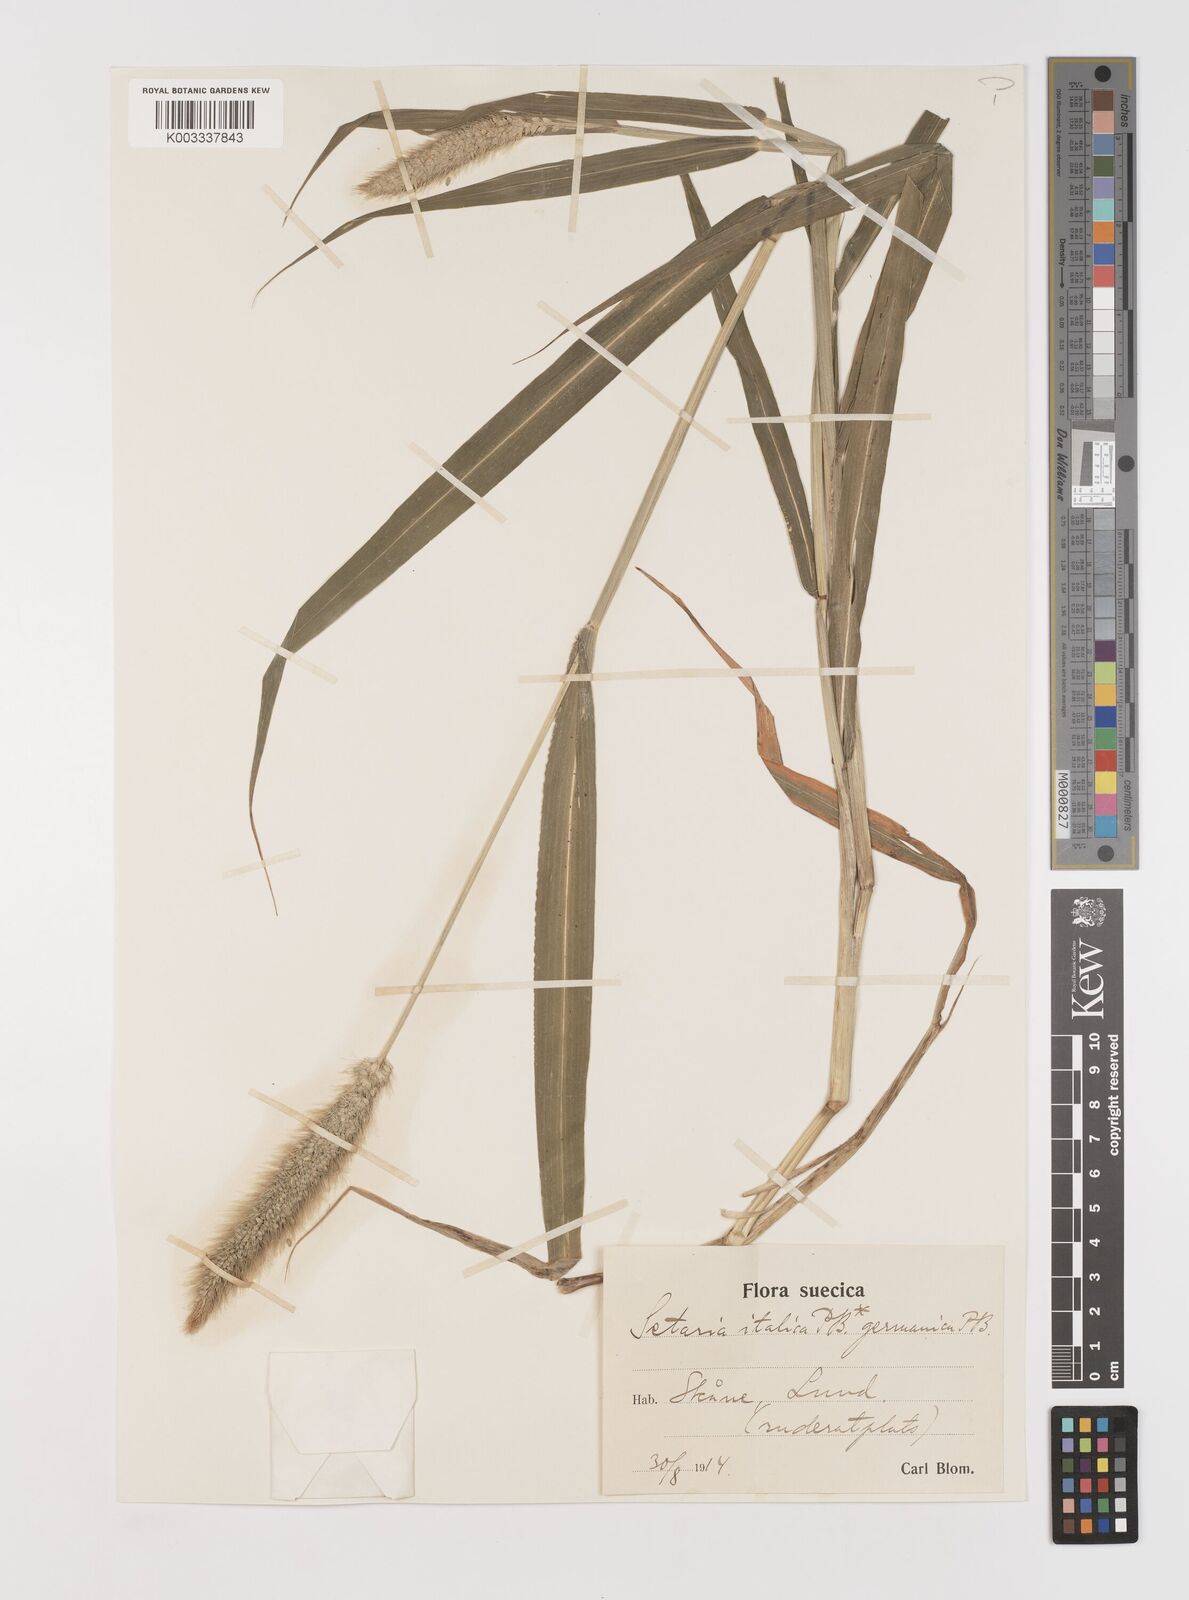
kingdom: Plantae
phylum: Tracheophyta
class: Liliopsida
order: Poales
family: Poaceae
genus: Setaria
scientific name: Setaria viridis
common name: Green bristlegrass
